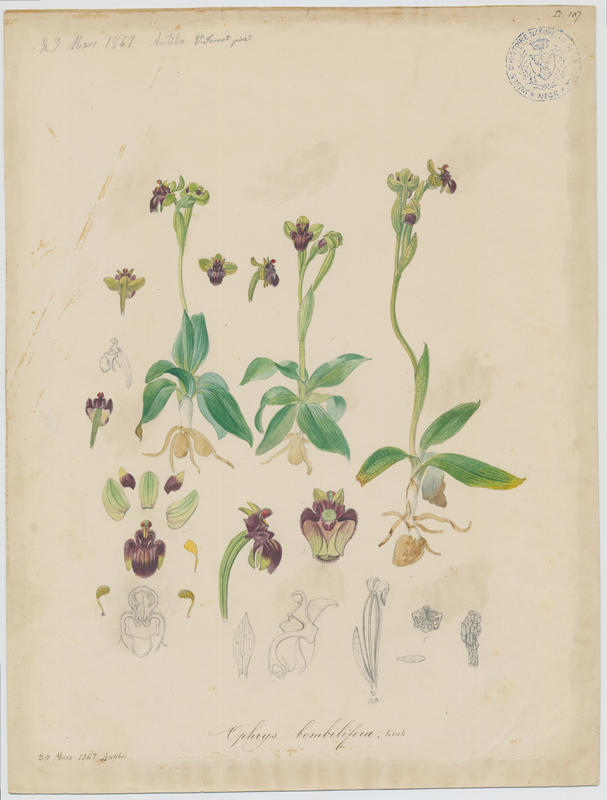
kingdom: Plantae
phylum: Tracheophyta
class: Liliopsida
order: Asparagales
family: Orchidaceae
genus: Ophrys
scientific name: Ophrys bombyliflora
